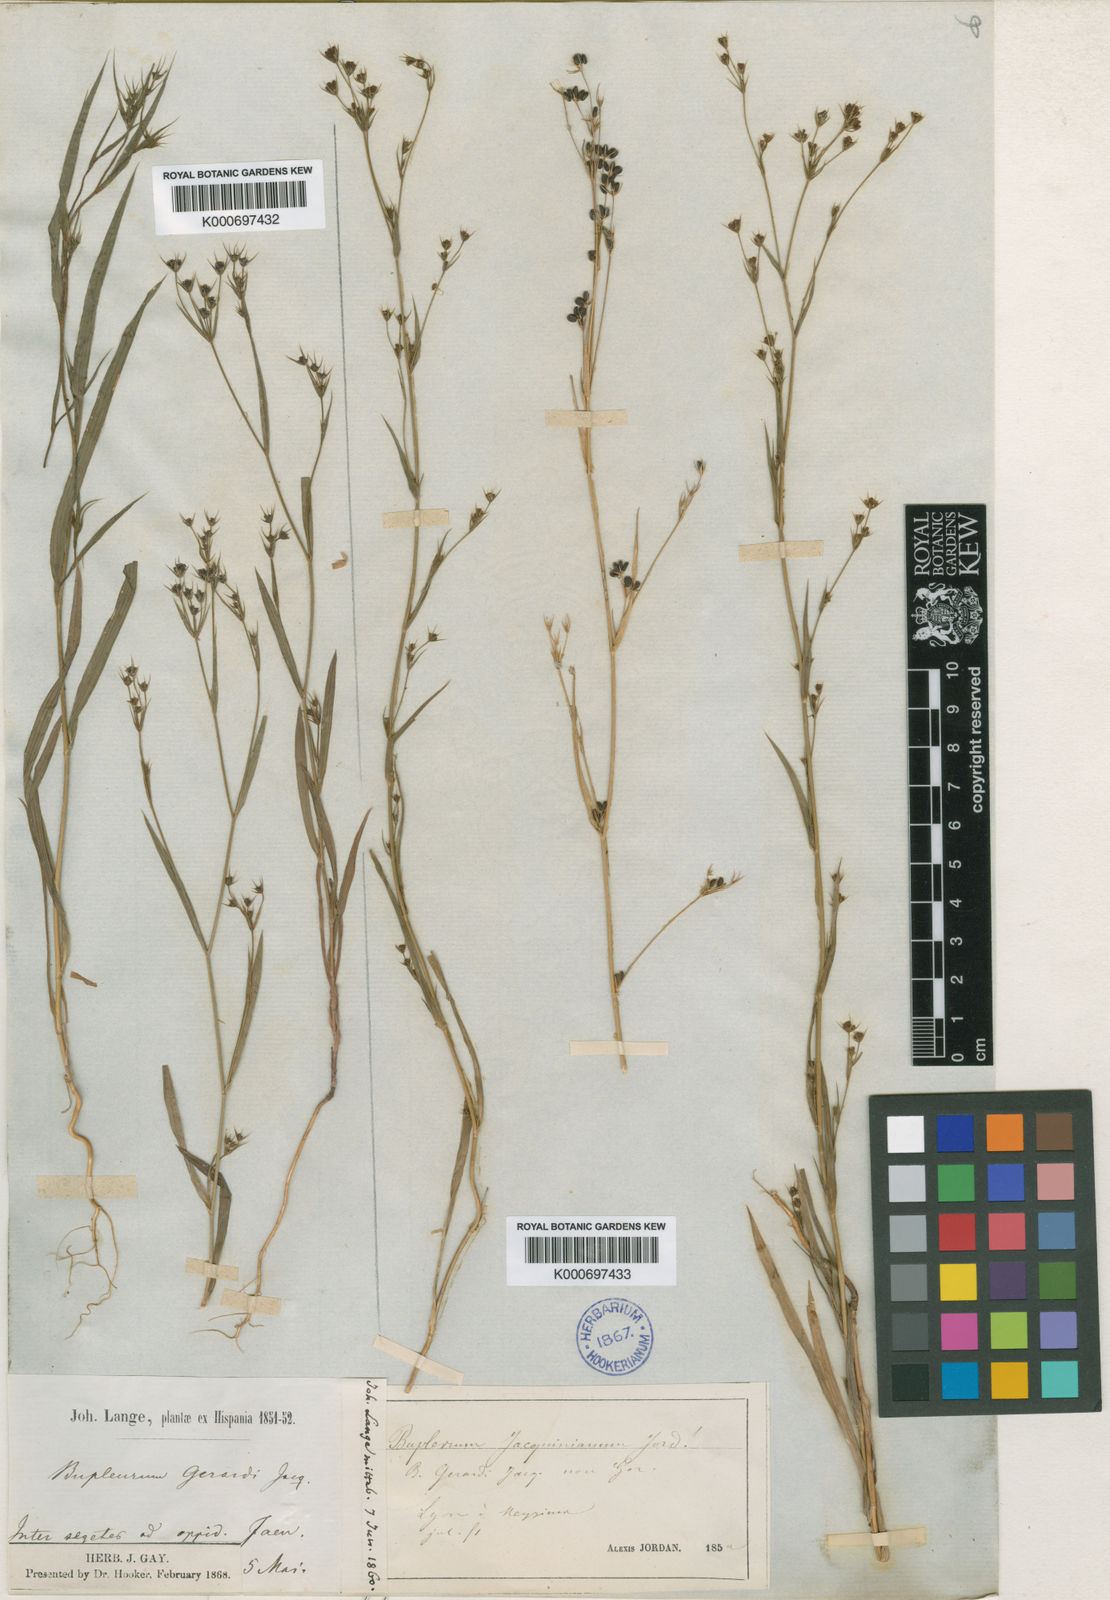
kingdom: Plantae
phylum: Tracheophyta
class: Magnoliopsida
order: Apiales
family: Apiaceae
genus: Bupleurum
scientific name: Bupleurum gerardi
